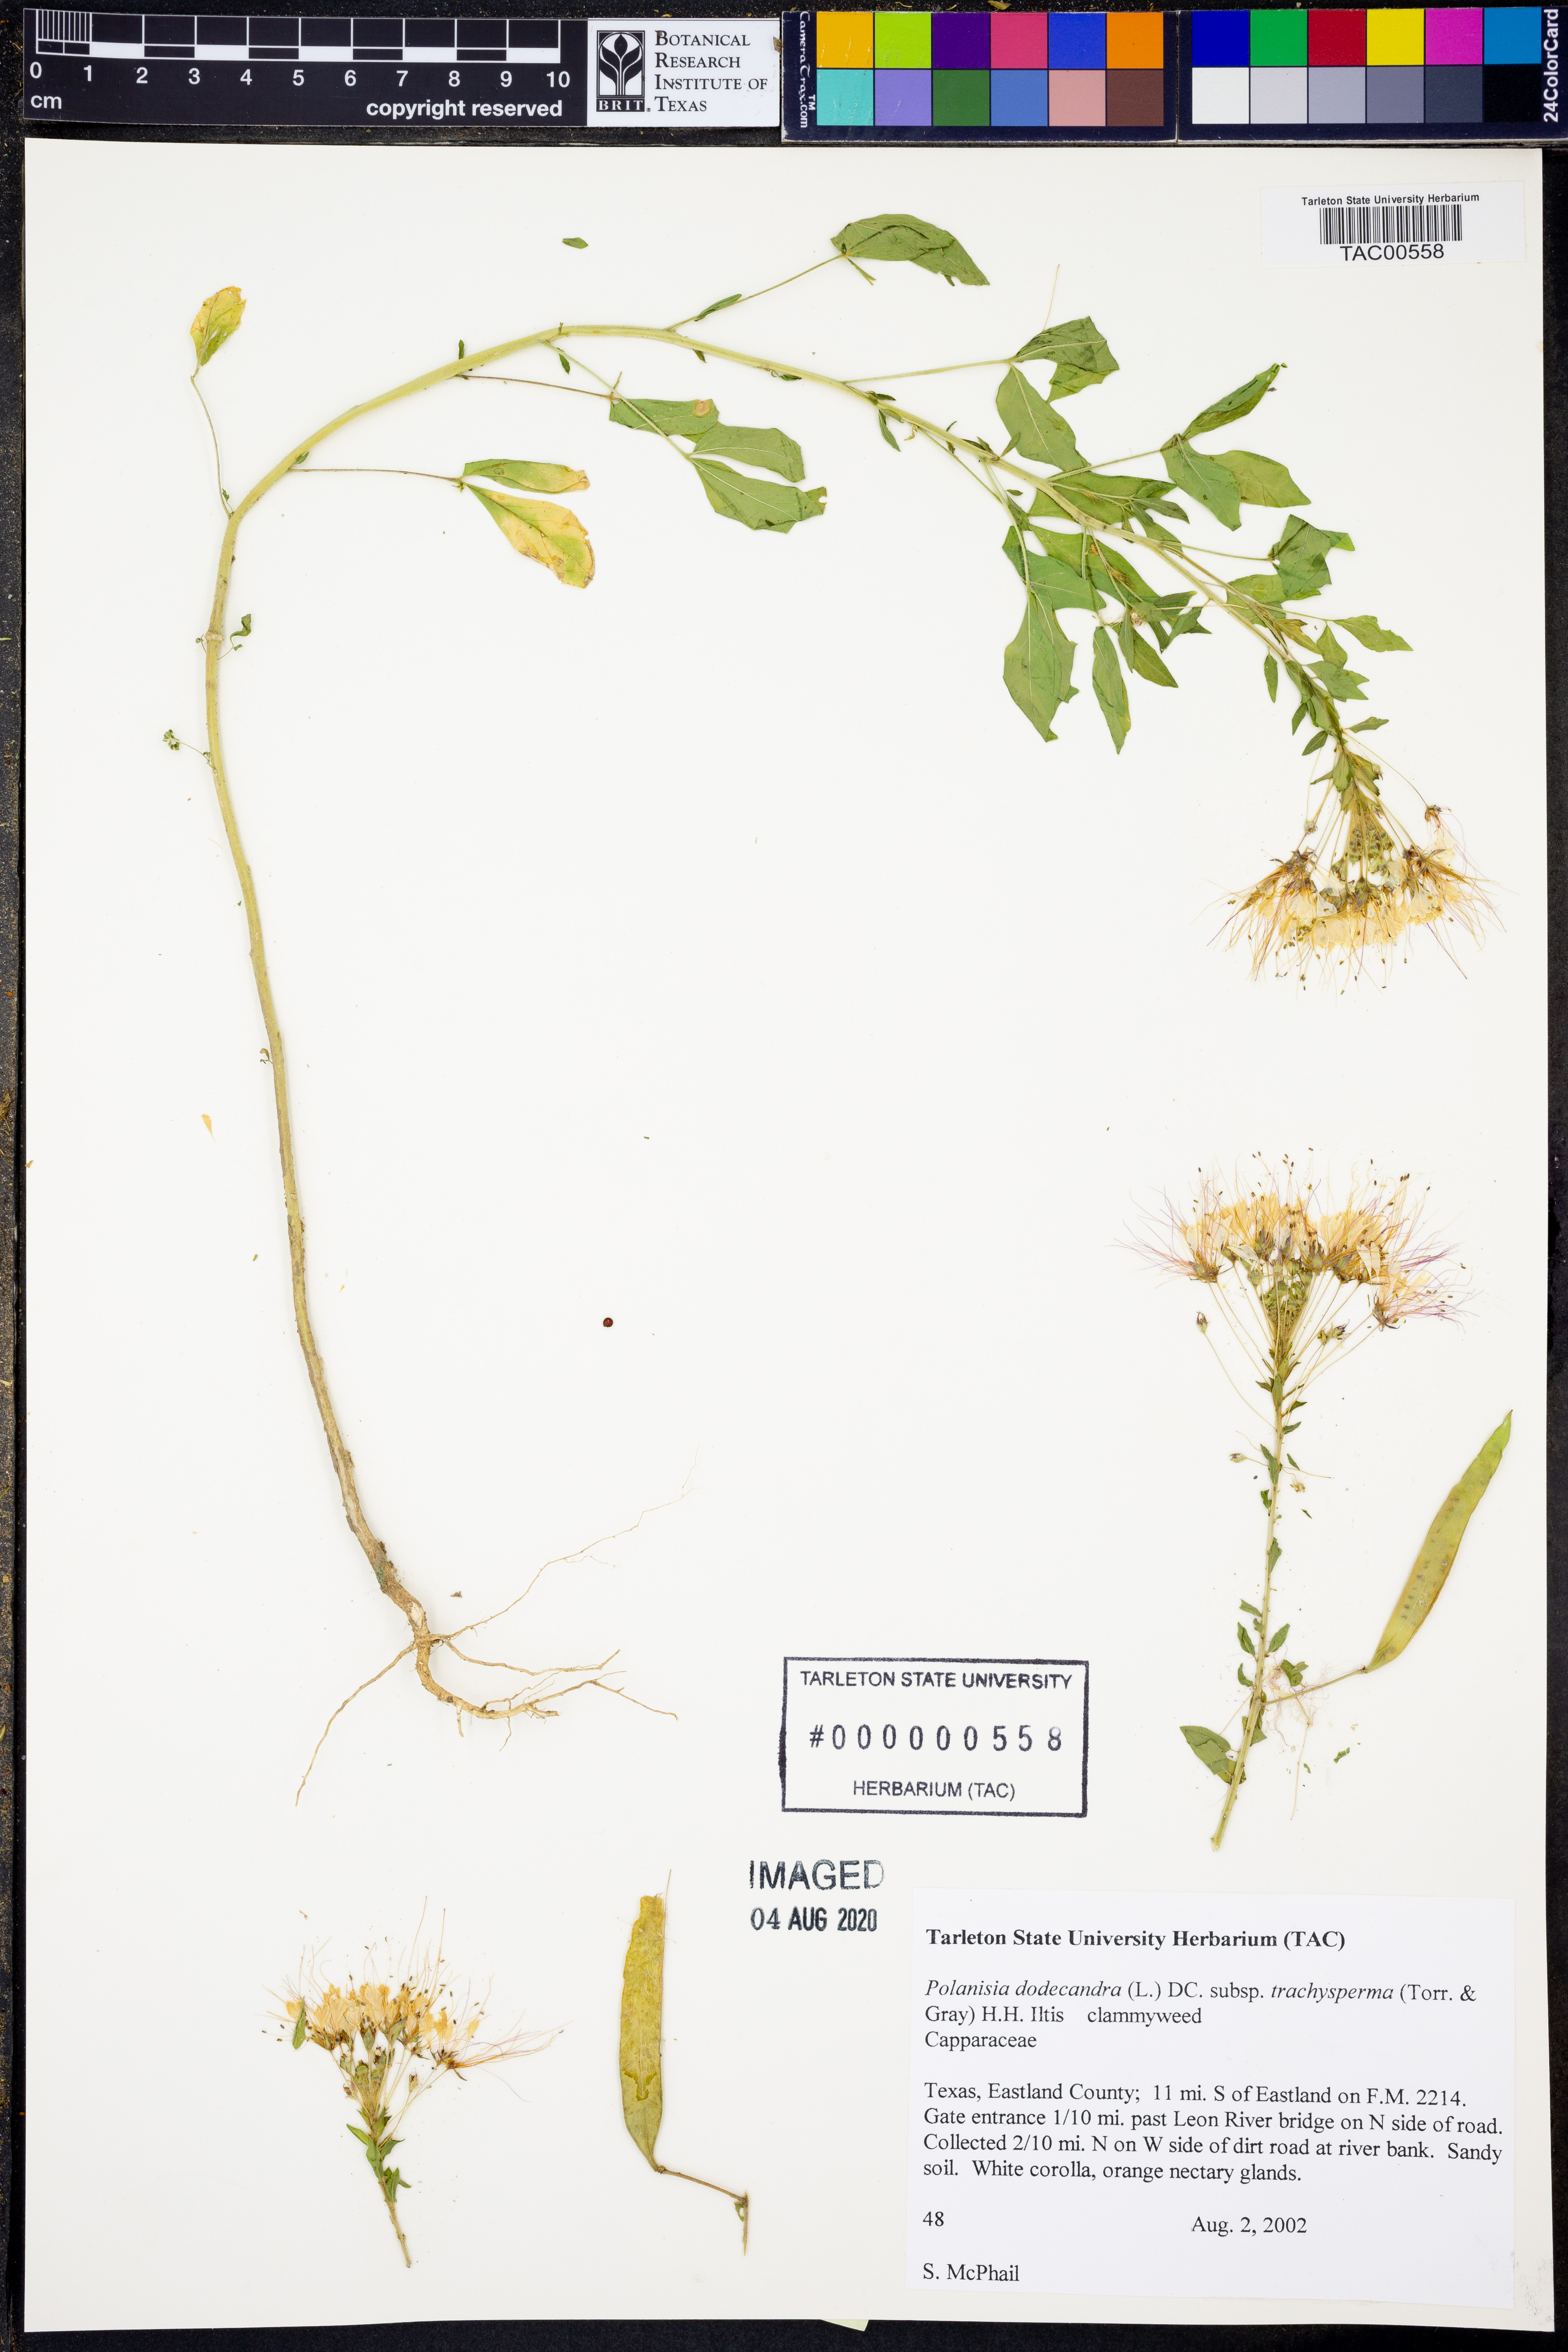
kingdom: Plantae
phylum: Tracheophyta
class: Magnoliopsida
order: Brassicales
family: Cleomaceae
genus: Polanisia
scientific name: Polanisia trachysperma
